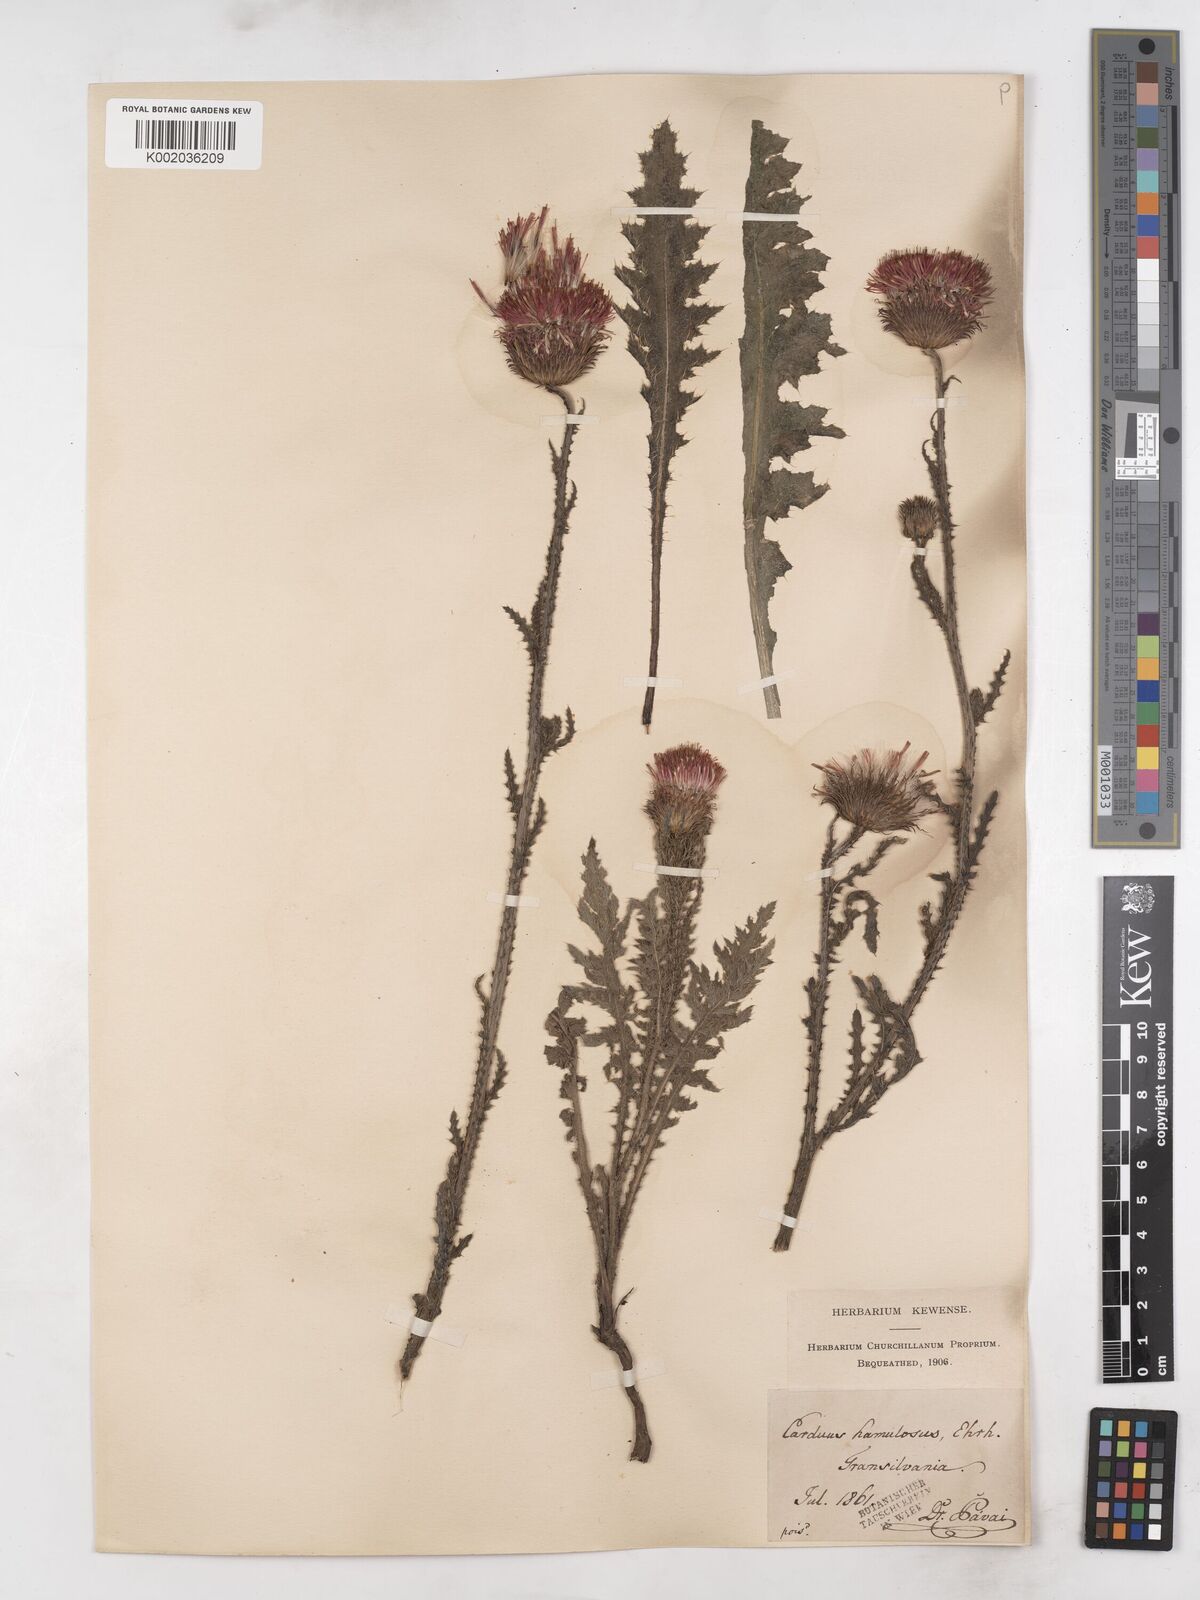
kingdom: Plantae
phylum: Tracheophyta
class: Magnoliopsida
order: Asterales
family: Asteraceae
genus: Carduus
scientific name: Carduus hamulosus
